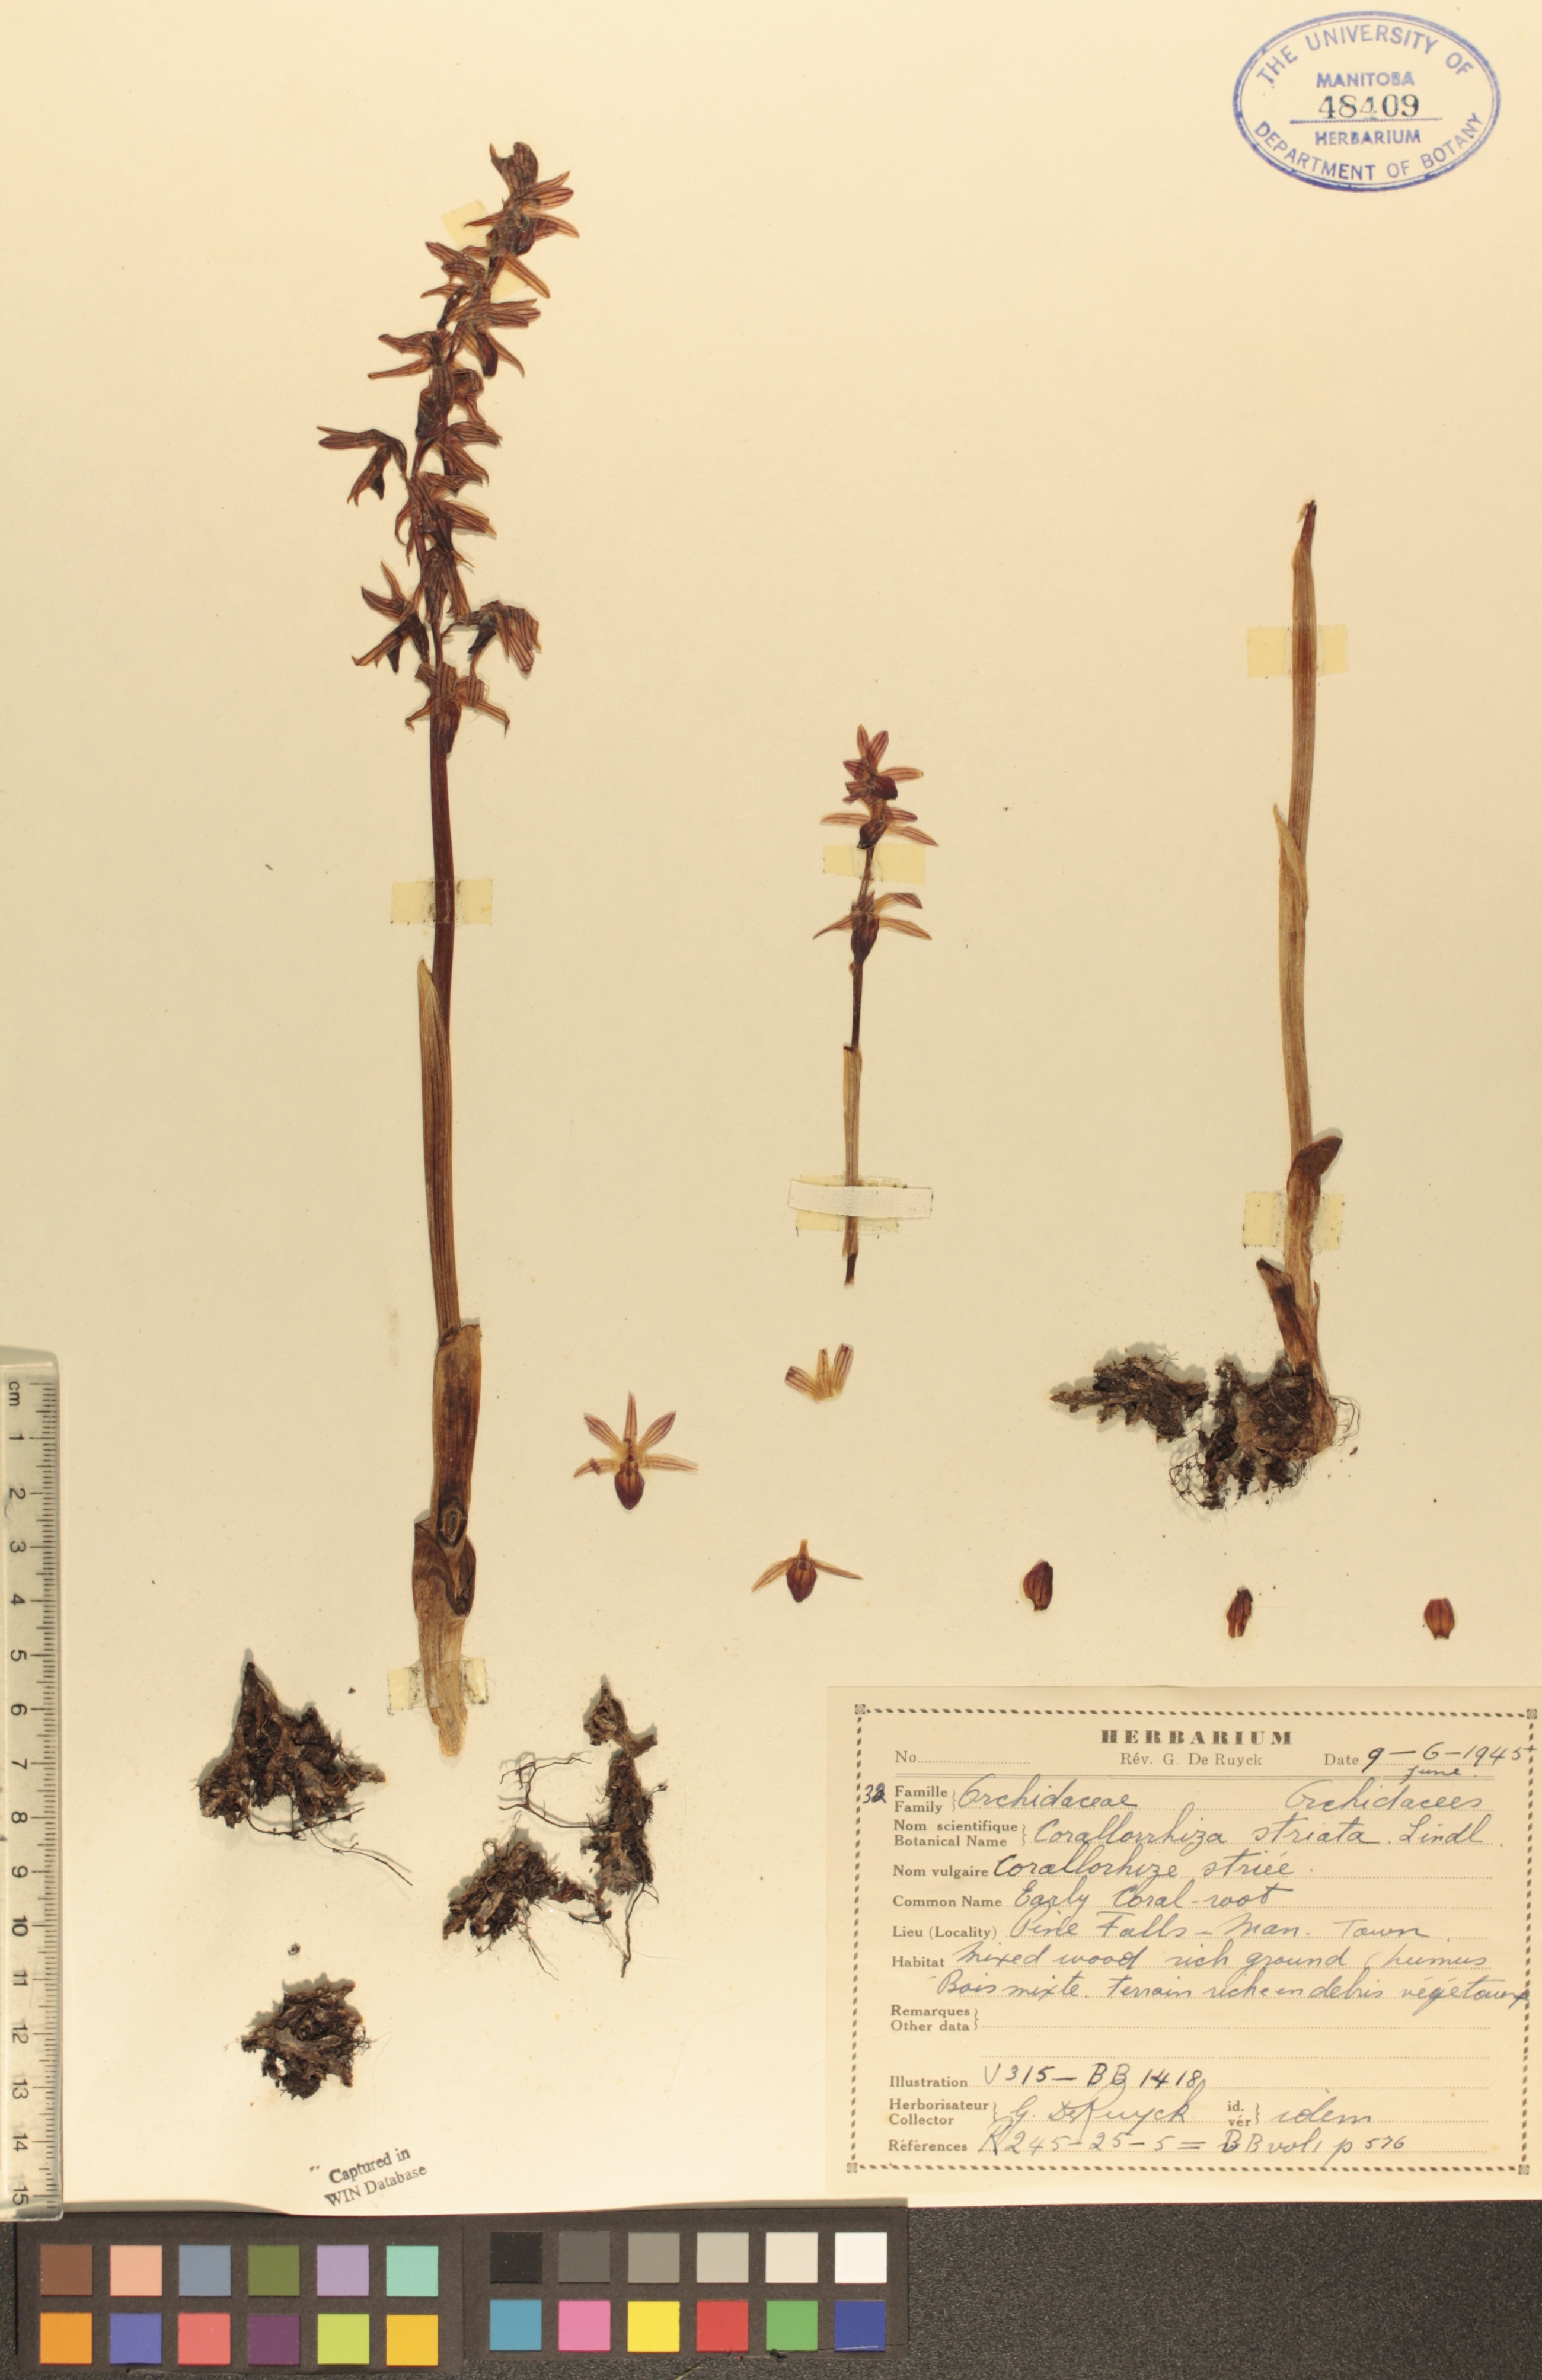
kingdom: Plantae
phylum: Tracheophyta
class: Liliopsida
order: Asparagales
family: Orchidaceae
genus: Corallorhiza
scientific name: Corallorhiza striata
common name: Hooded coralroot
